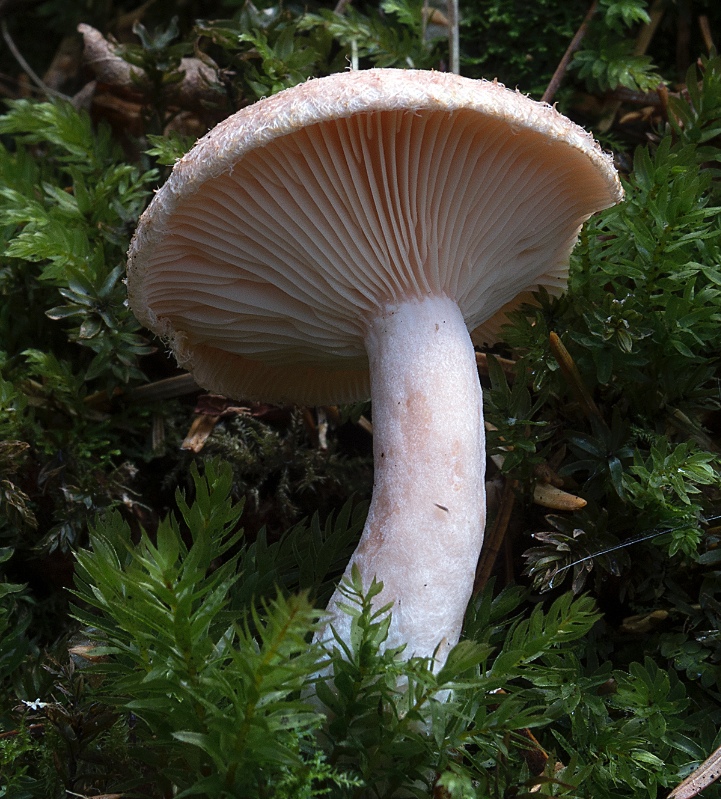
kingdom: Fungi
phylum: Basidiomycota
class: Agaricomycetes
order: Russulales
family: Russulaceae
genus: Lactarius
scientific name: Lactarius torminosus
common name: skægget mælkehat
